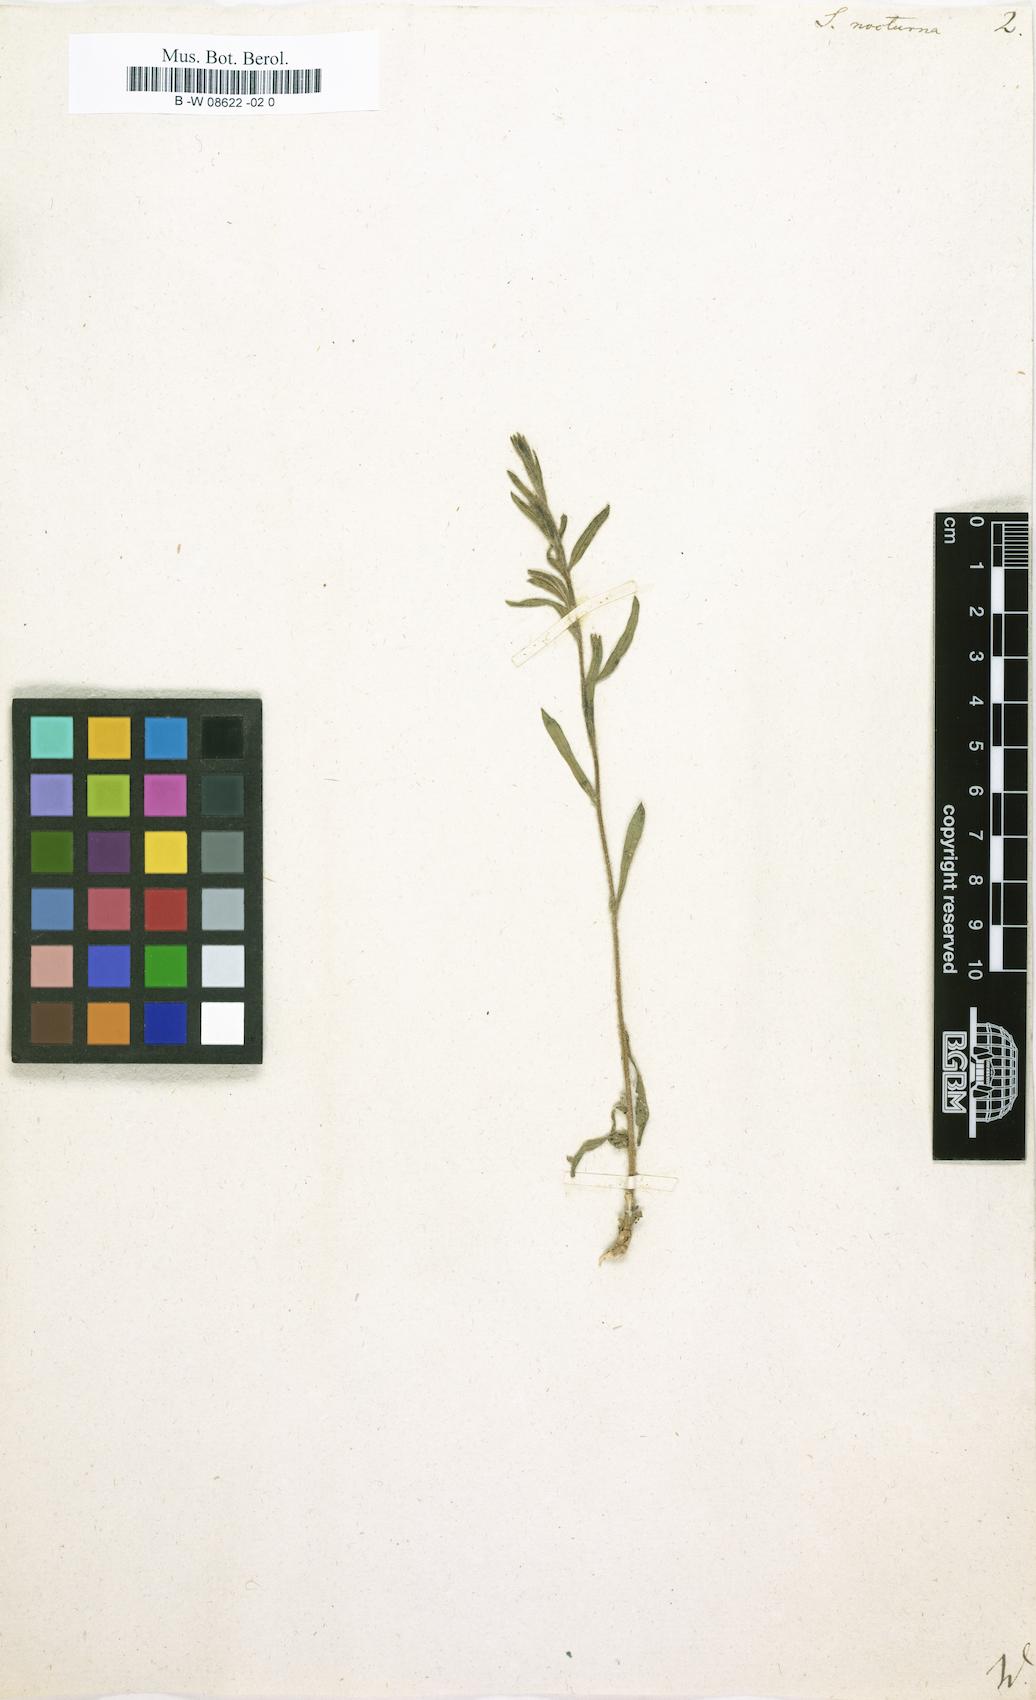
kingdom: Plantae
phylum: Tracheophyta
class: Magnoliopsida
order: Caryophyllales
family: Caryophyllaceae
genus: Silene
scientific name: Silene nocturna
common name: Mediterranean catchfly
